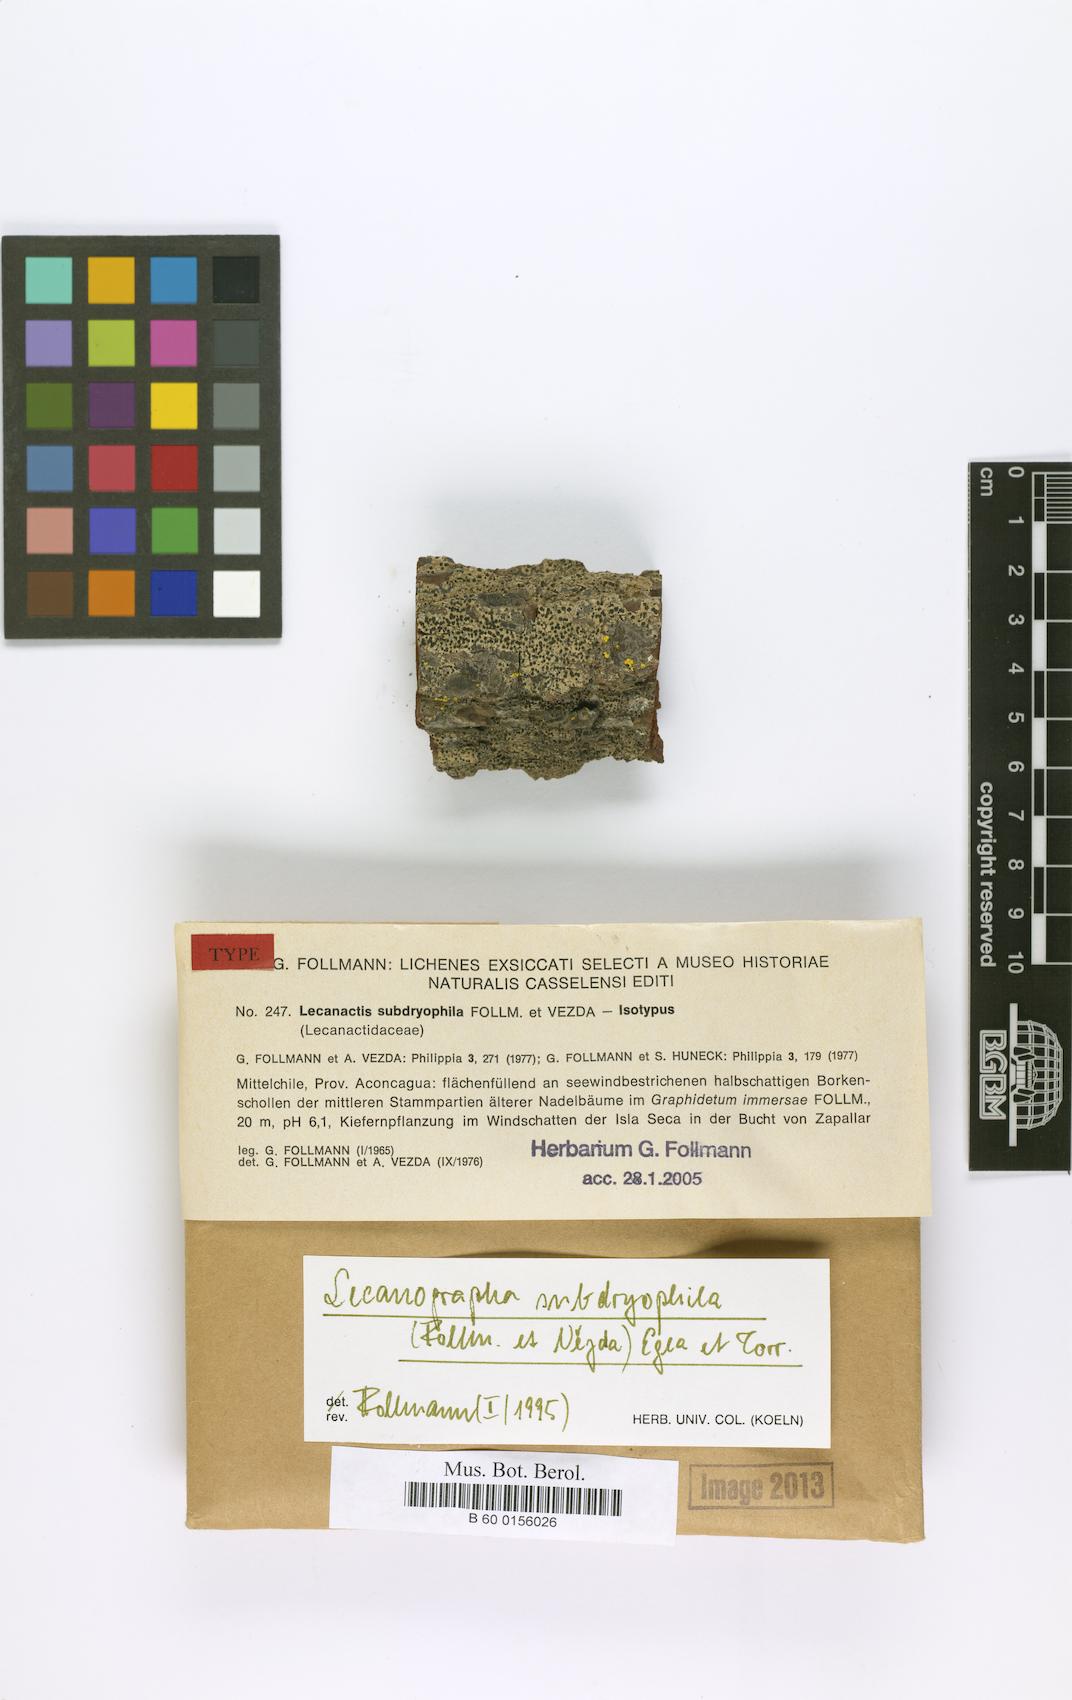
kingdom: Fungi
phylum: Ascomycota
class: Arthoniomycetes
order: Arthoniales
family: Lecanographaceae
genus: Lecanographa
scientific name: Lecanographa subdryophila
